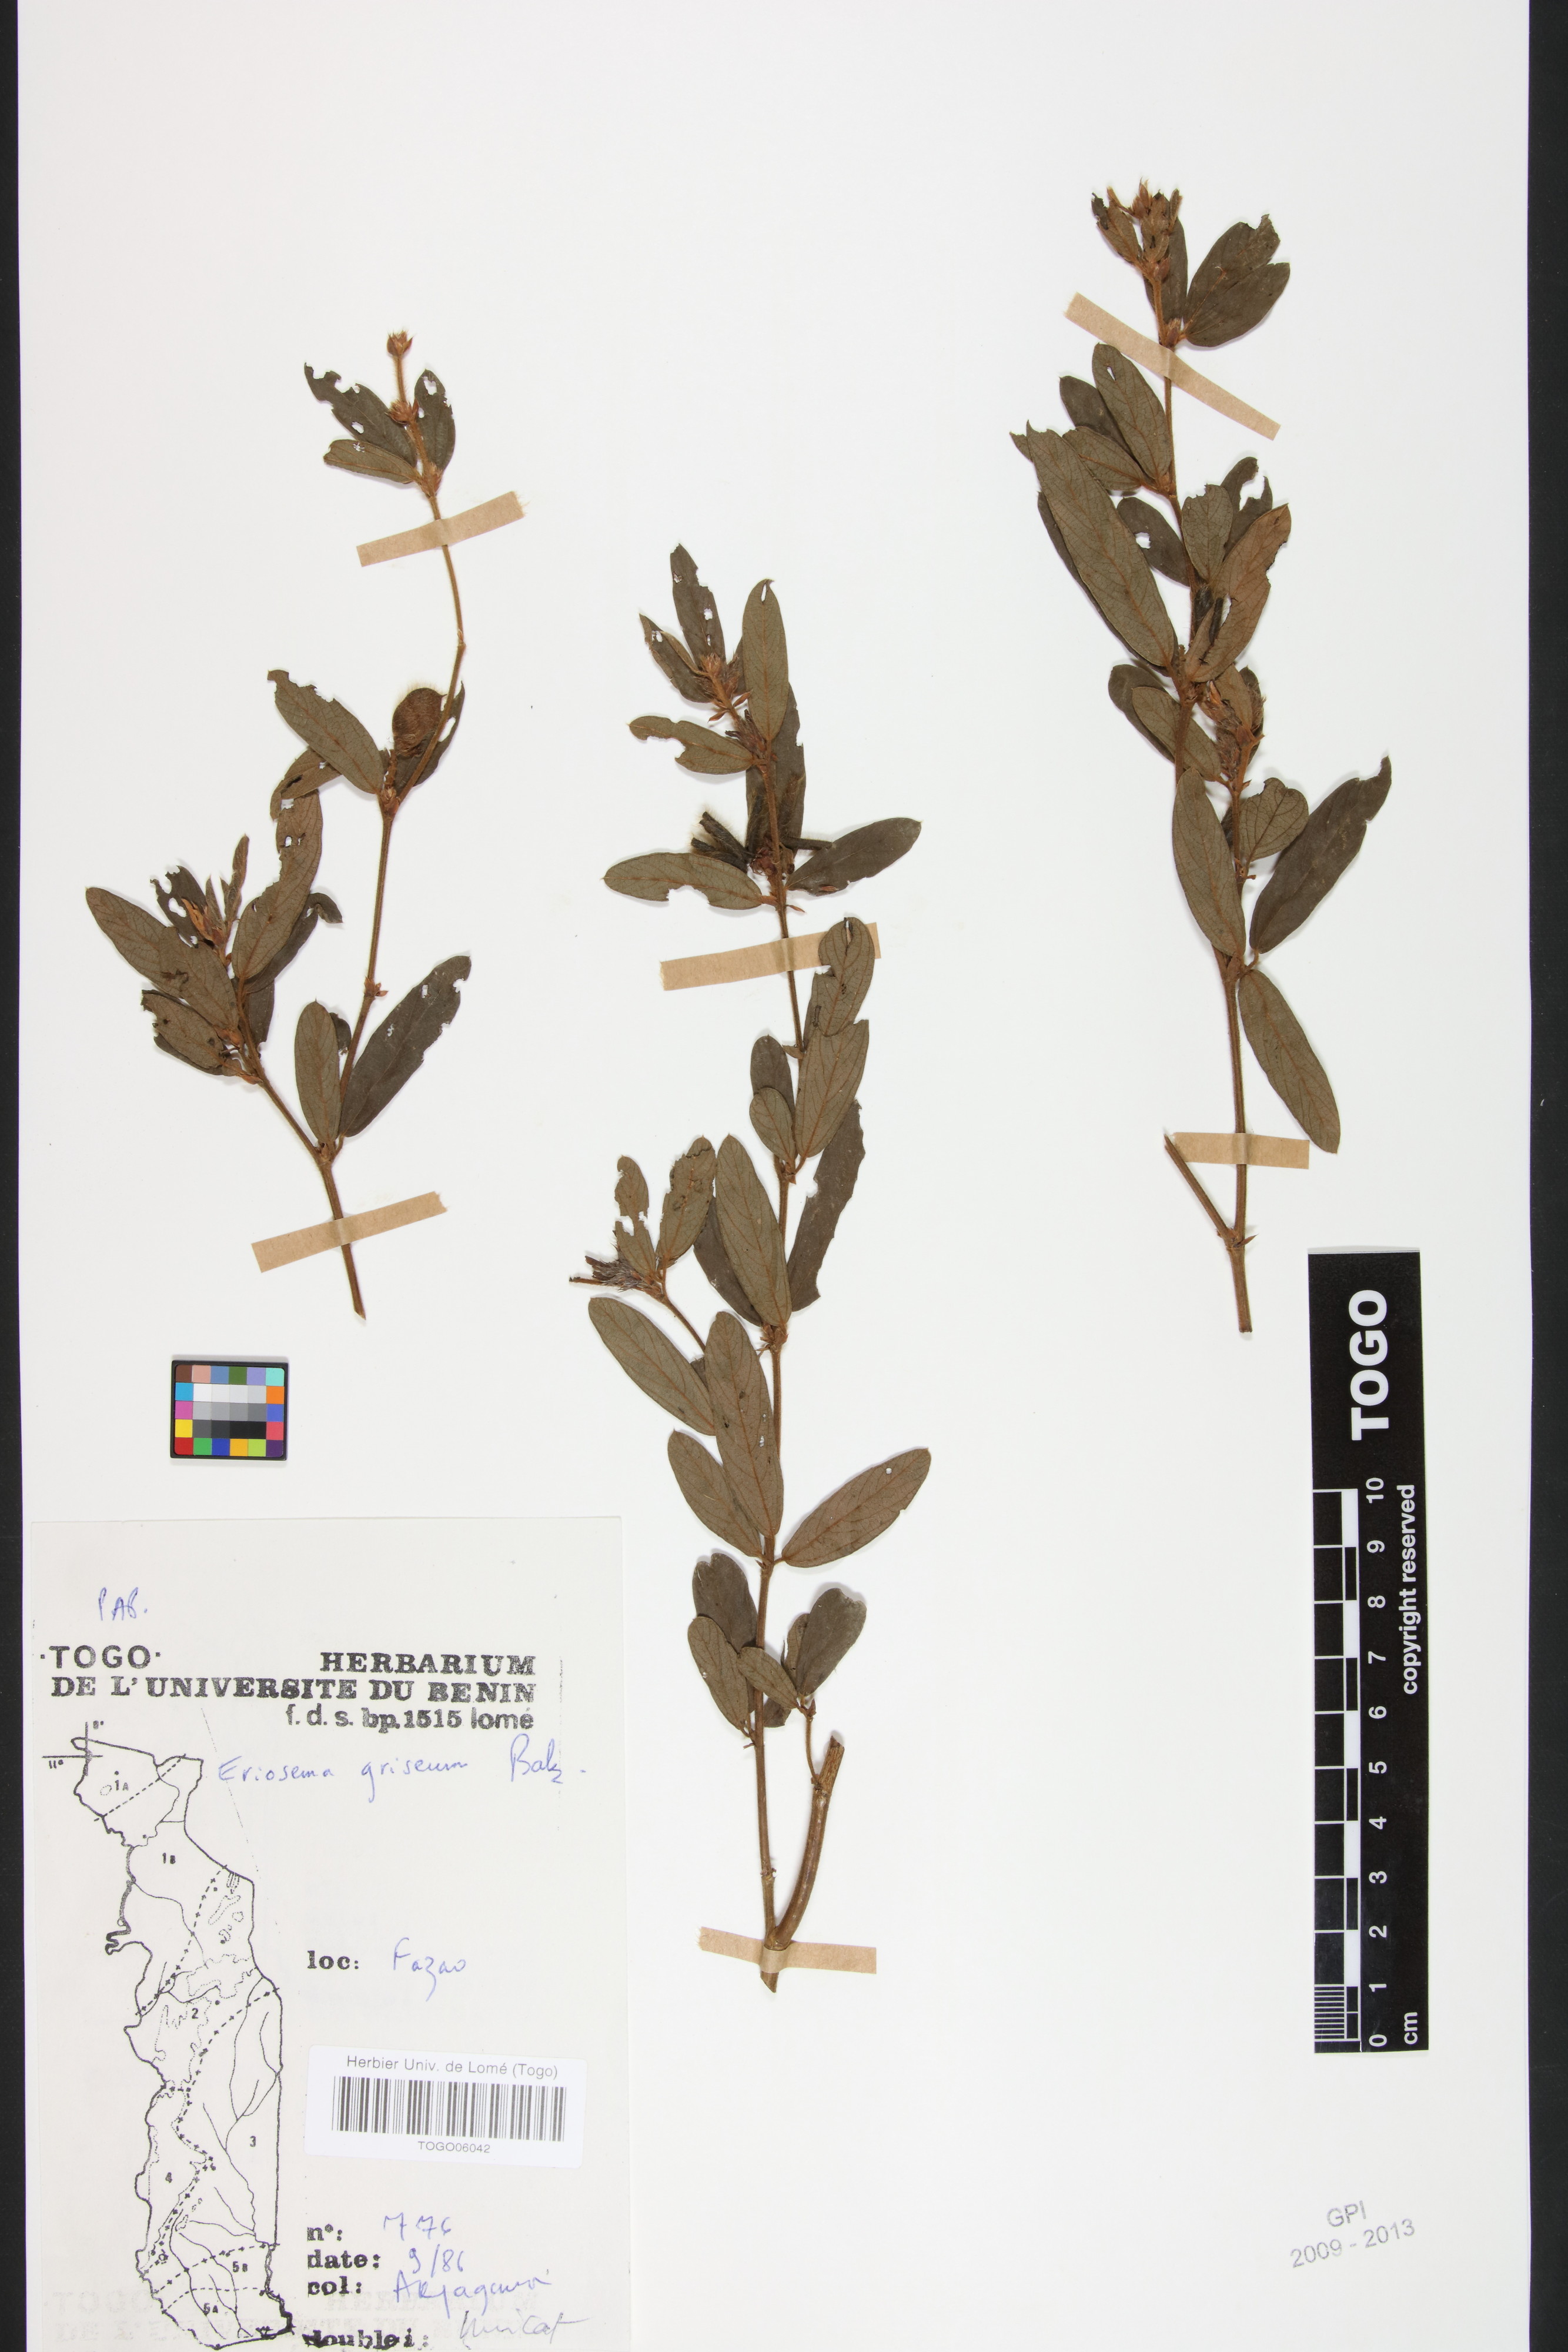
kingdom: Plantae
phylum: Tracheophyta
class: Magnoliopsida
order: Fabales
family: Fabaceae
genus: Eriosema
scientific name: Eriosema griseum
